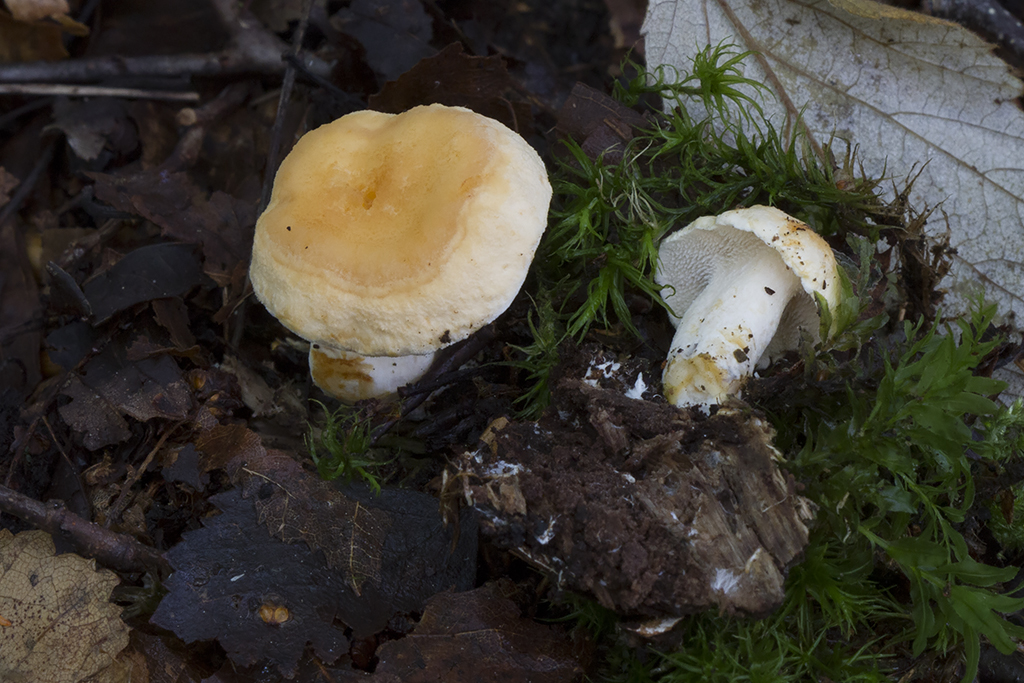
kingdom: Fungi
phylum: Basidiomycota
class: Agaricomycetes
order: Cantharellales
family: Hydnaceae
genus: Hydnum
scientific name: Hydnum magnorufescens
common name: brunende pigsvamp
